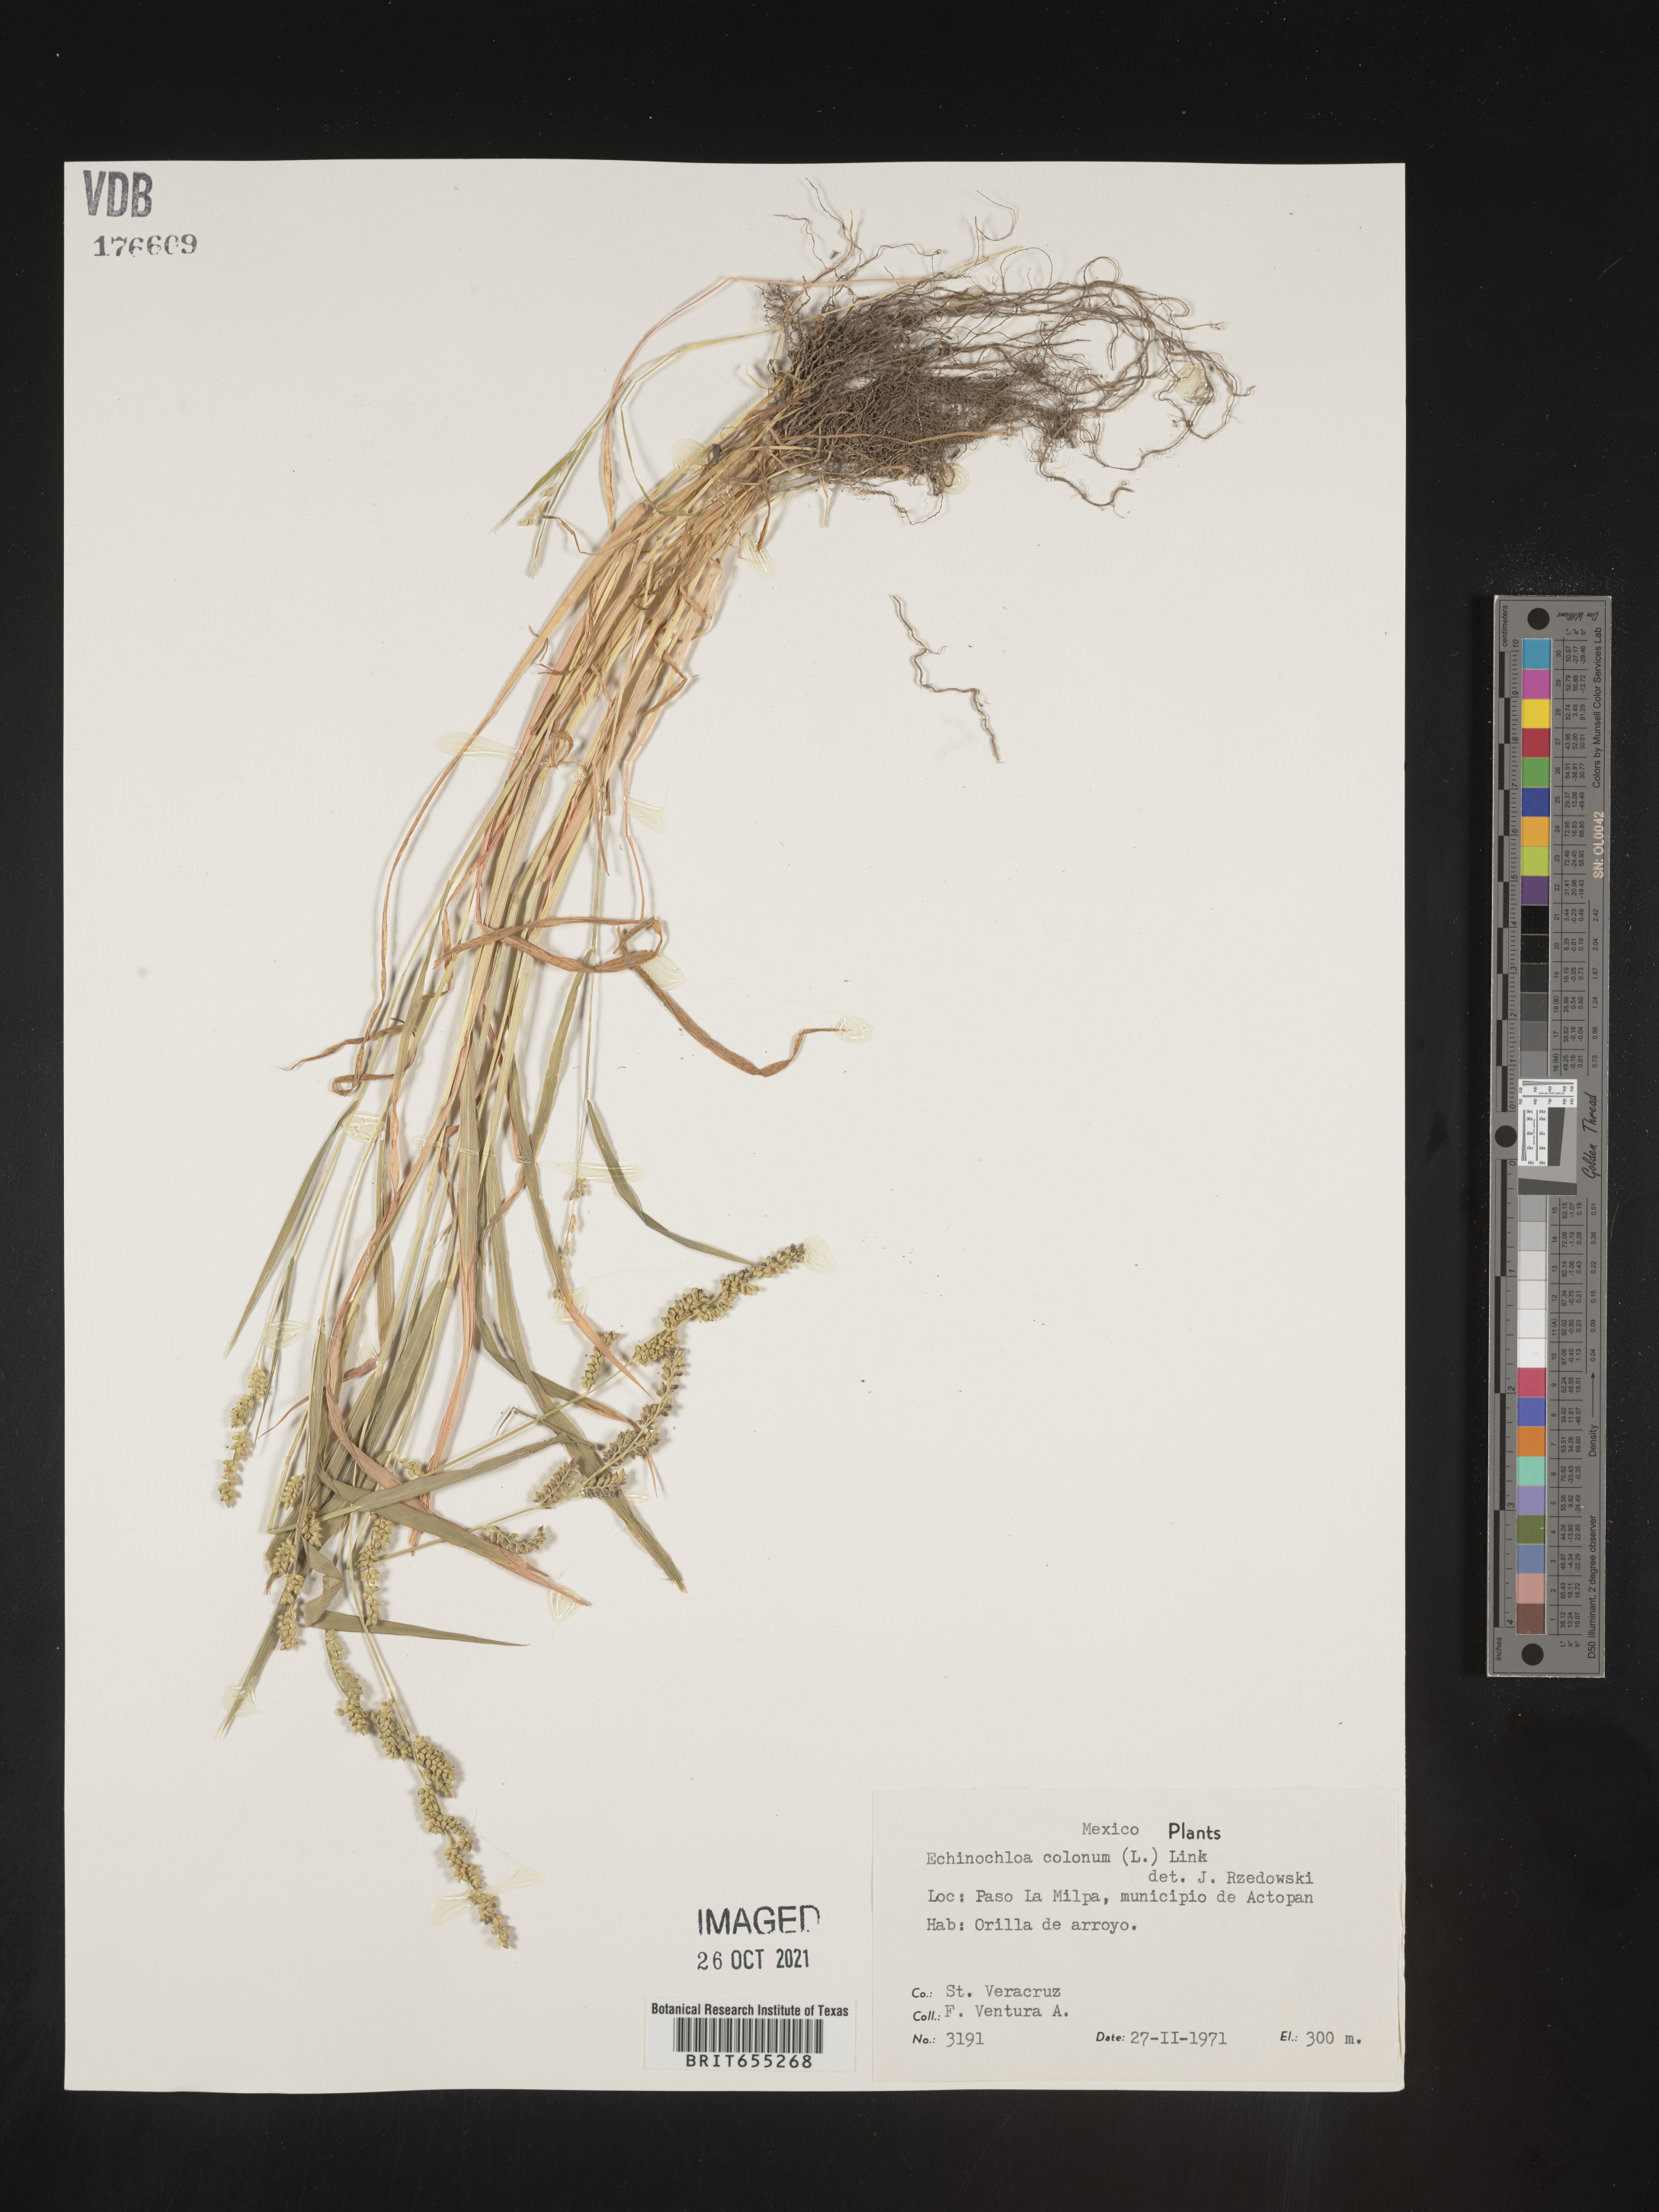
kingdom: Plantae
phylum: Tracheophyta
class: Liliopsida
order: Poales
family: Poaceae
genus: Echinochloa
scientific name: Echinochloa
